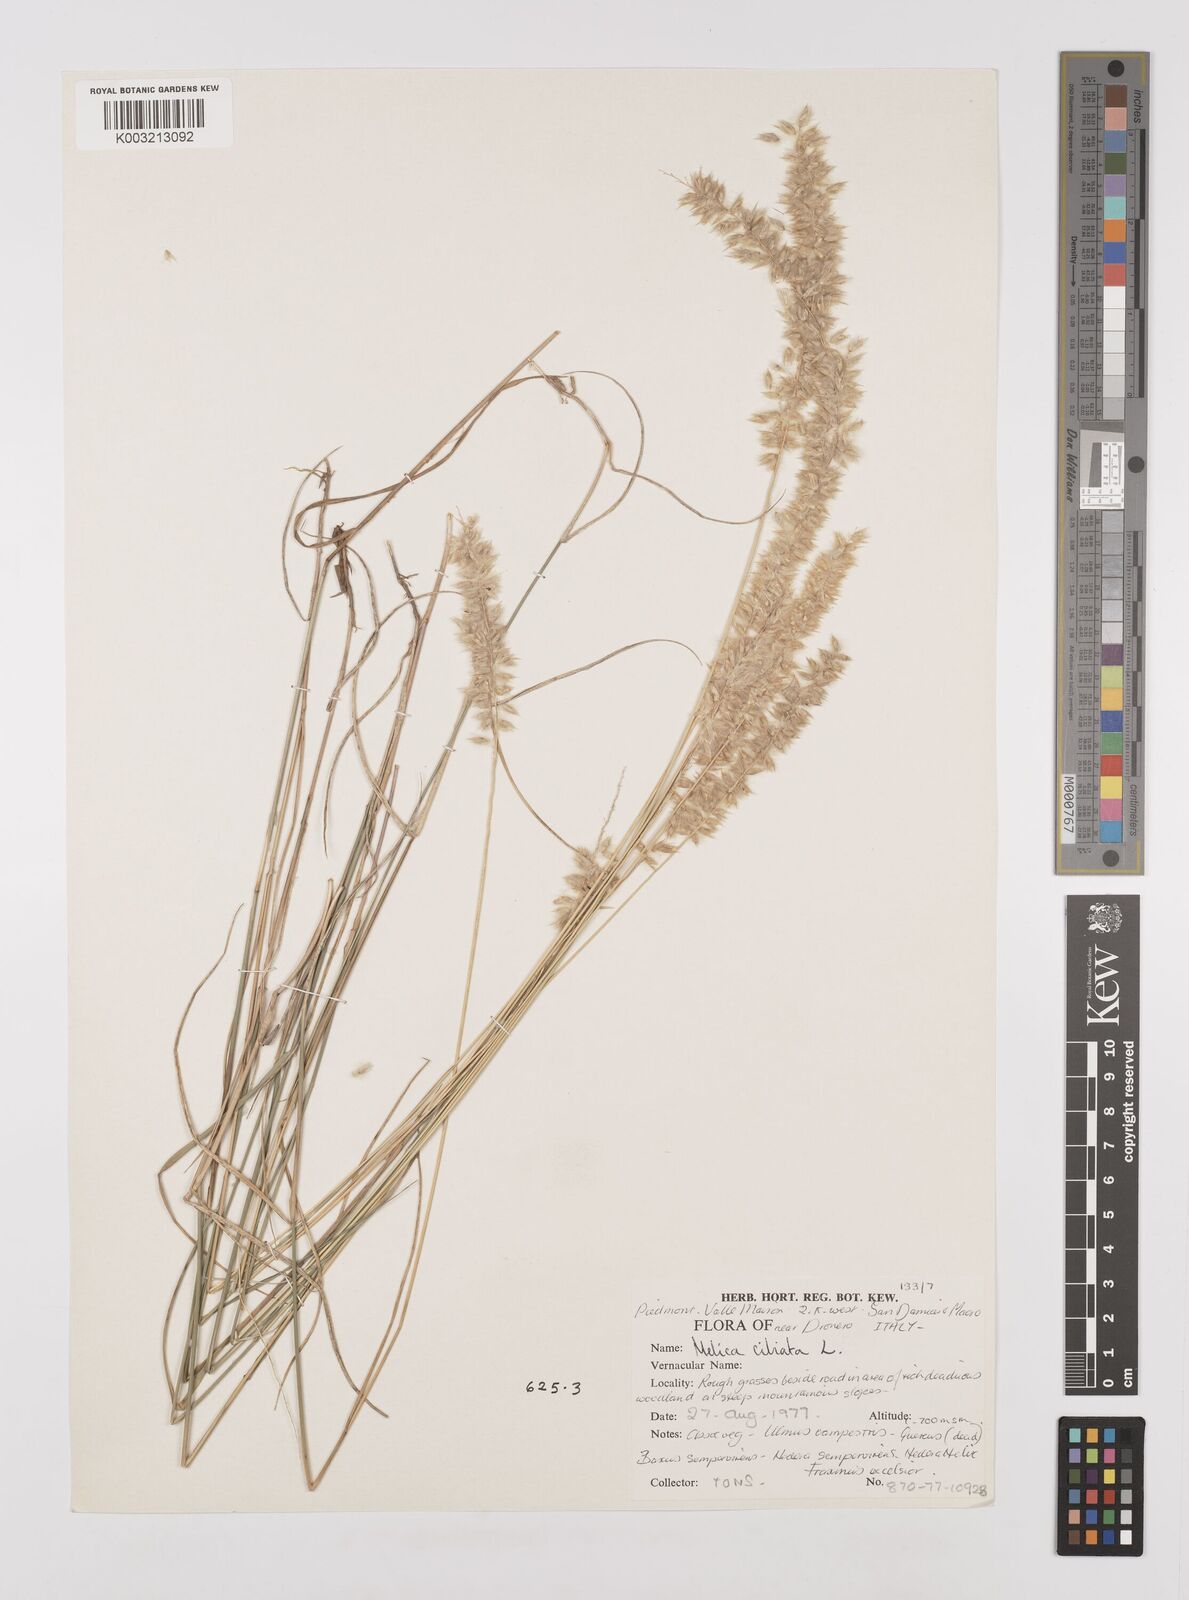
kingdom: Plantae
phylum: Tracheophyta
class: Liliopsida
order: Poales
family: Poaceae
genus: Melica
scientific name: Melica ciliata
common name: Hairy melicgrass
